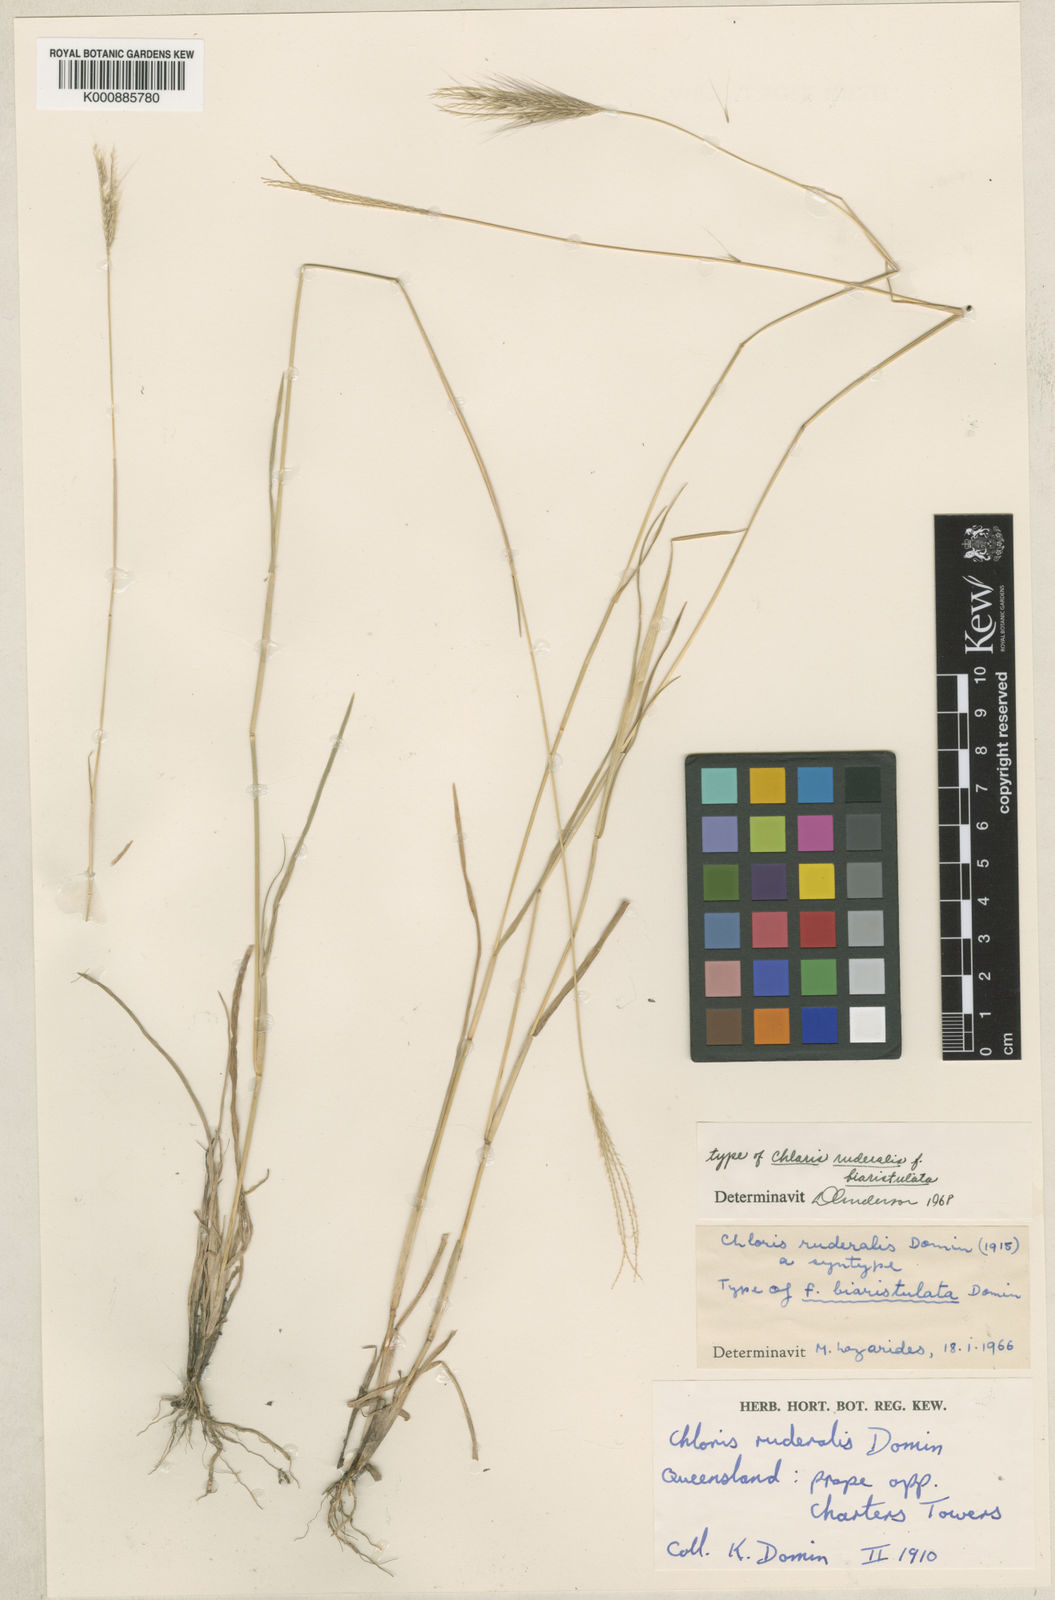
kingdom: Plantae
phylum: Tracheophyta
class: Liliopsida
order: Poales
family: Poaceae
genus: Chloris
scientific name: Chloris pumilio
